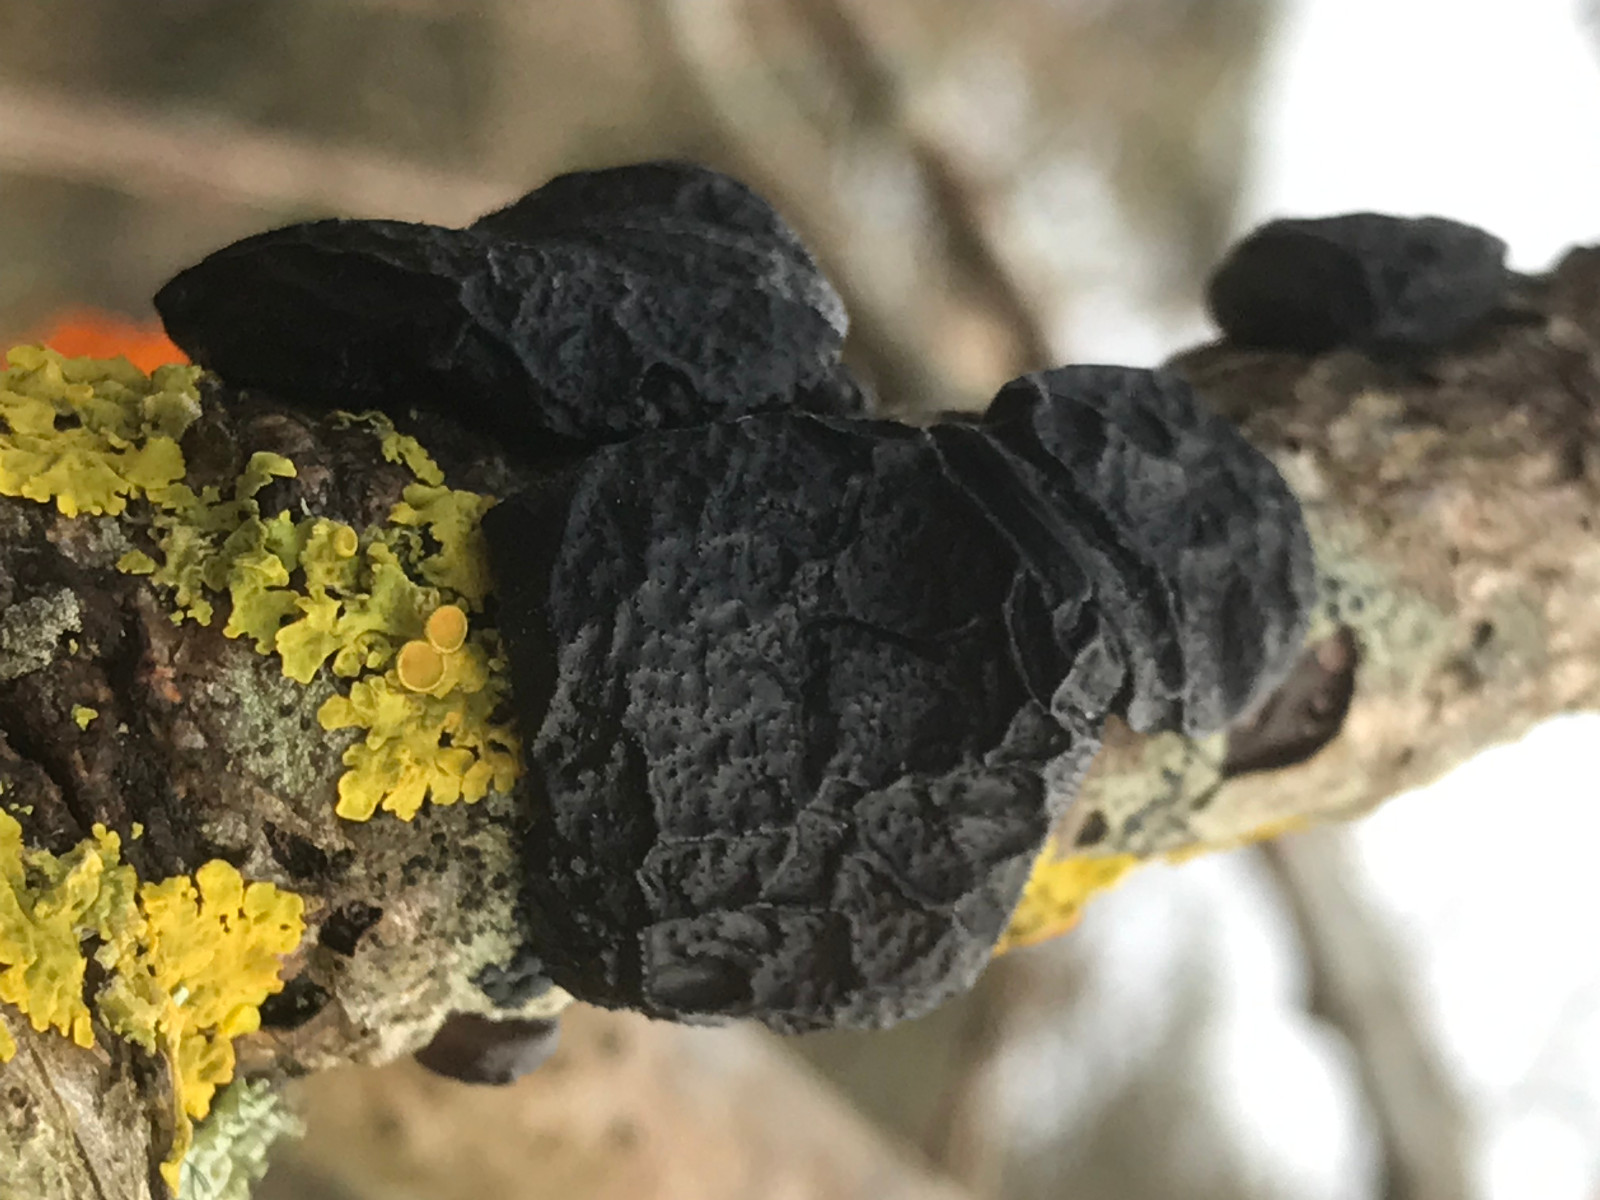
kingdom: Fungi
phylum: Basidiomycota
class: Agaricomycetes
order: Auriculariales
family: Auriculariaceae
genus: Exidia
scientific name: Exidia glandulosa
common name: ege-bævretop
